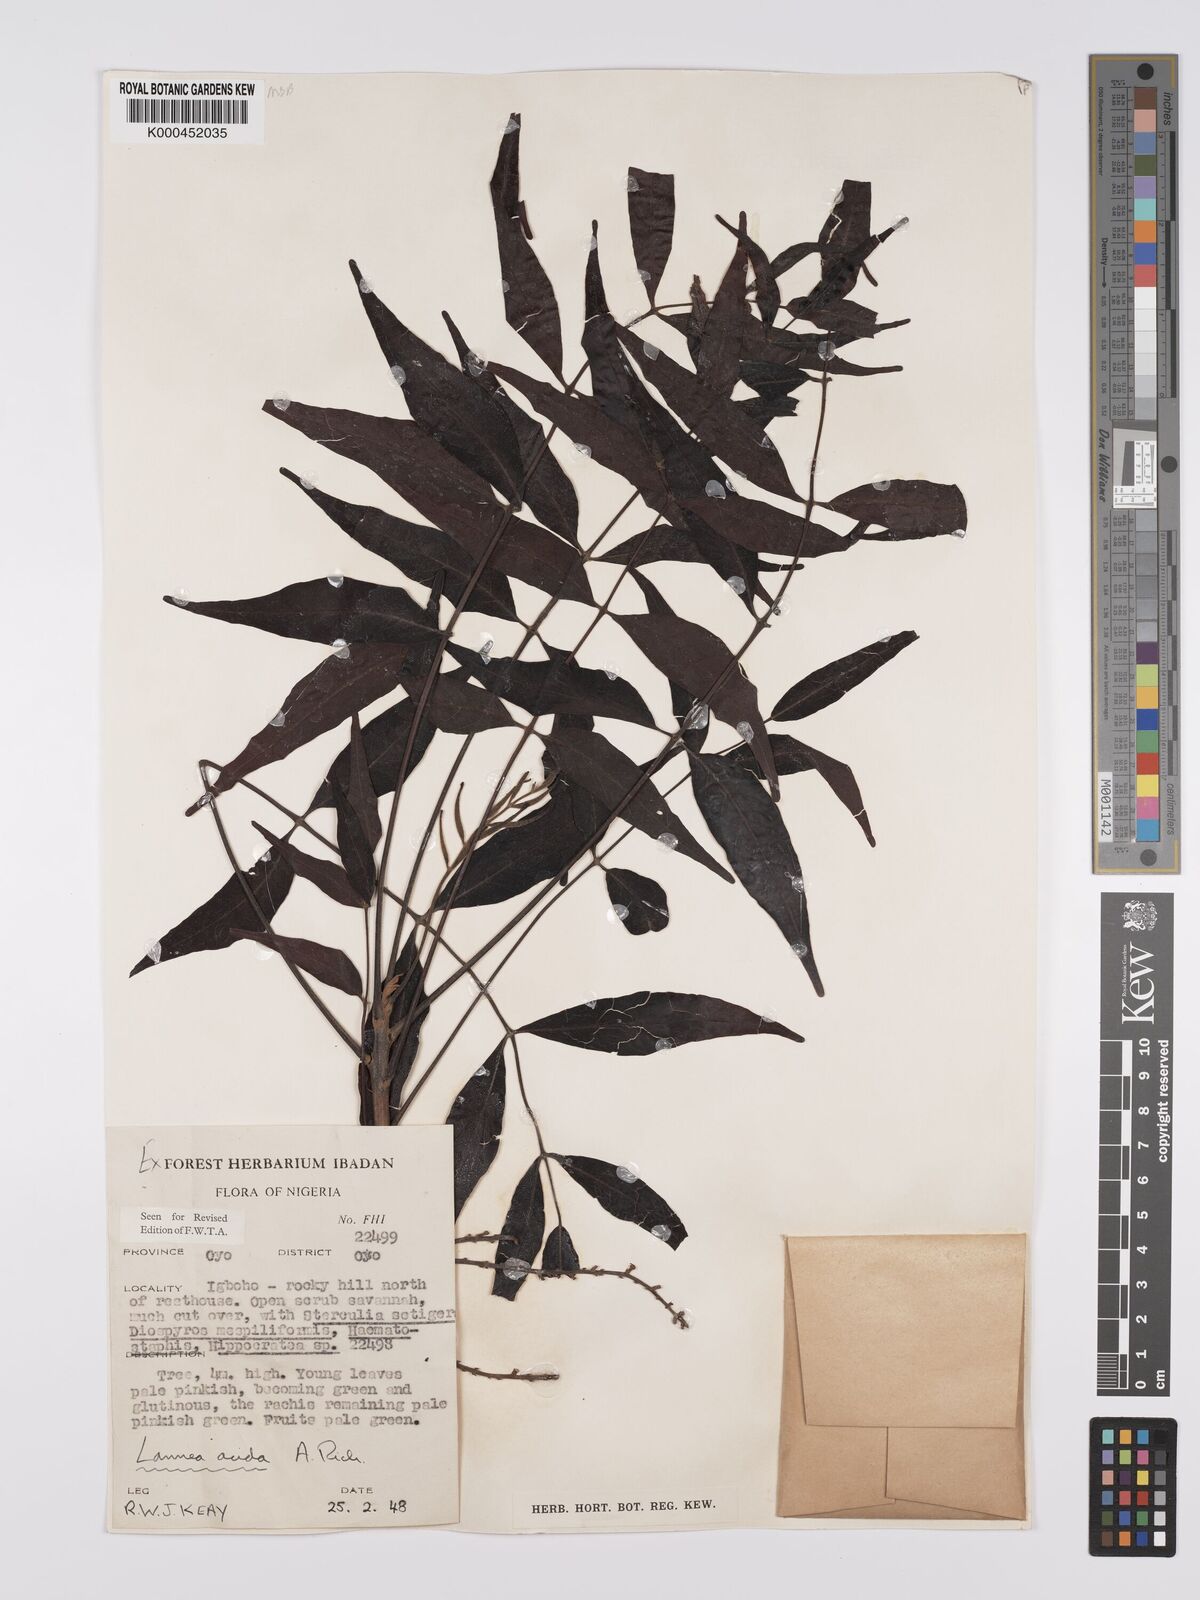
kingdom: Plantae
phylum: Tracheophyta
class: Magnoliopsida
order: Sapindales
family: Anacardiaceae
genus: Lannea
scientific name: Lannea acida
